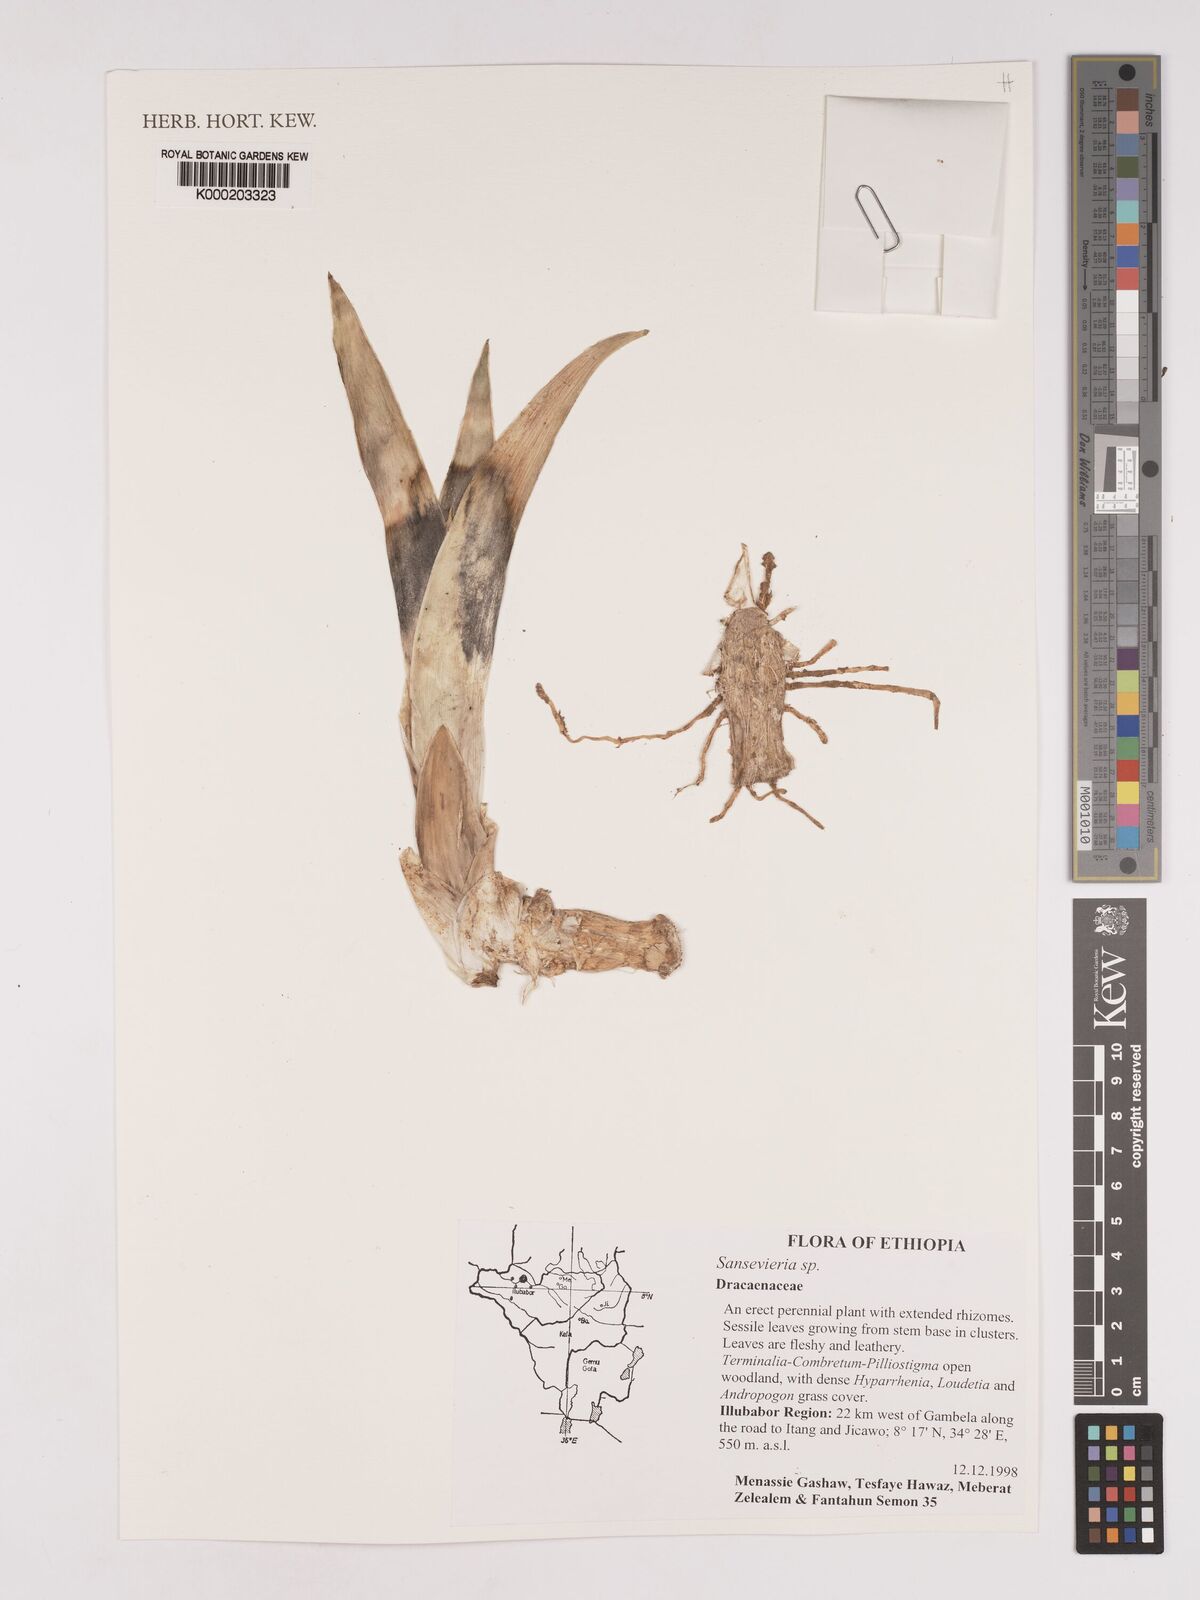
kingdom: Plantae
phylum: Tracheophyta
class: Liliopsida
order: Asparagales
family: Asparagaceae
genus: Dracaena
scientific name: Dracaena
